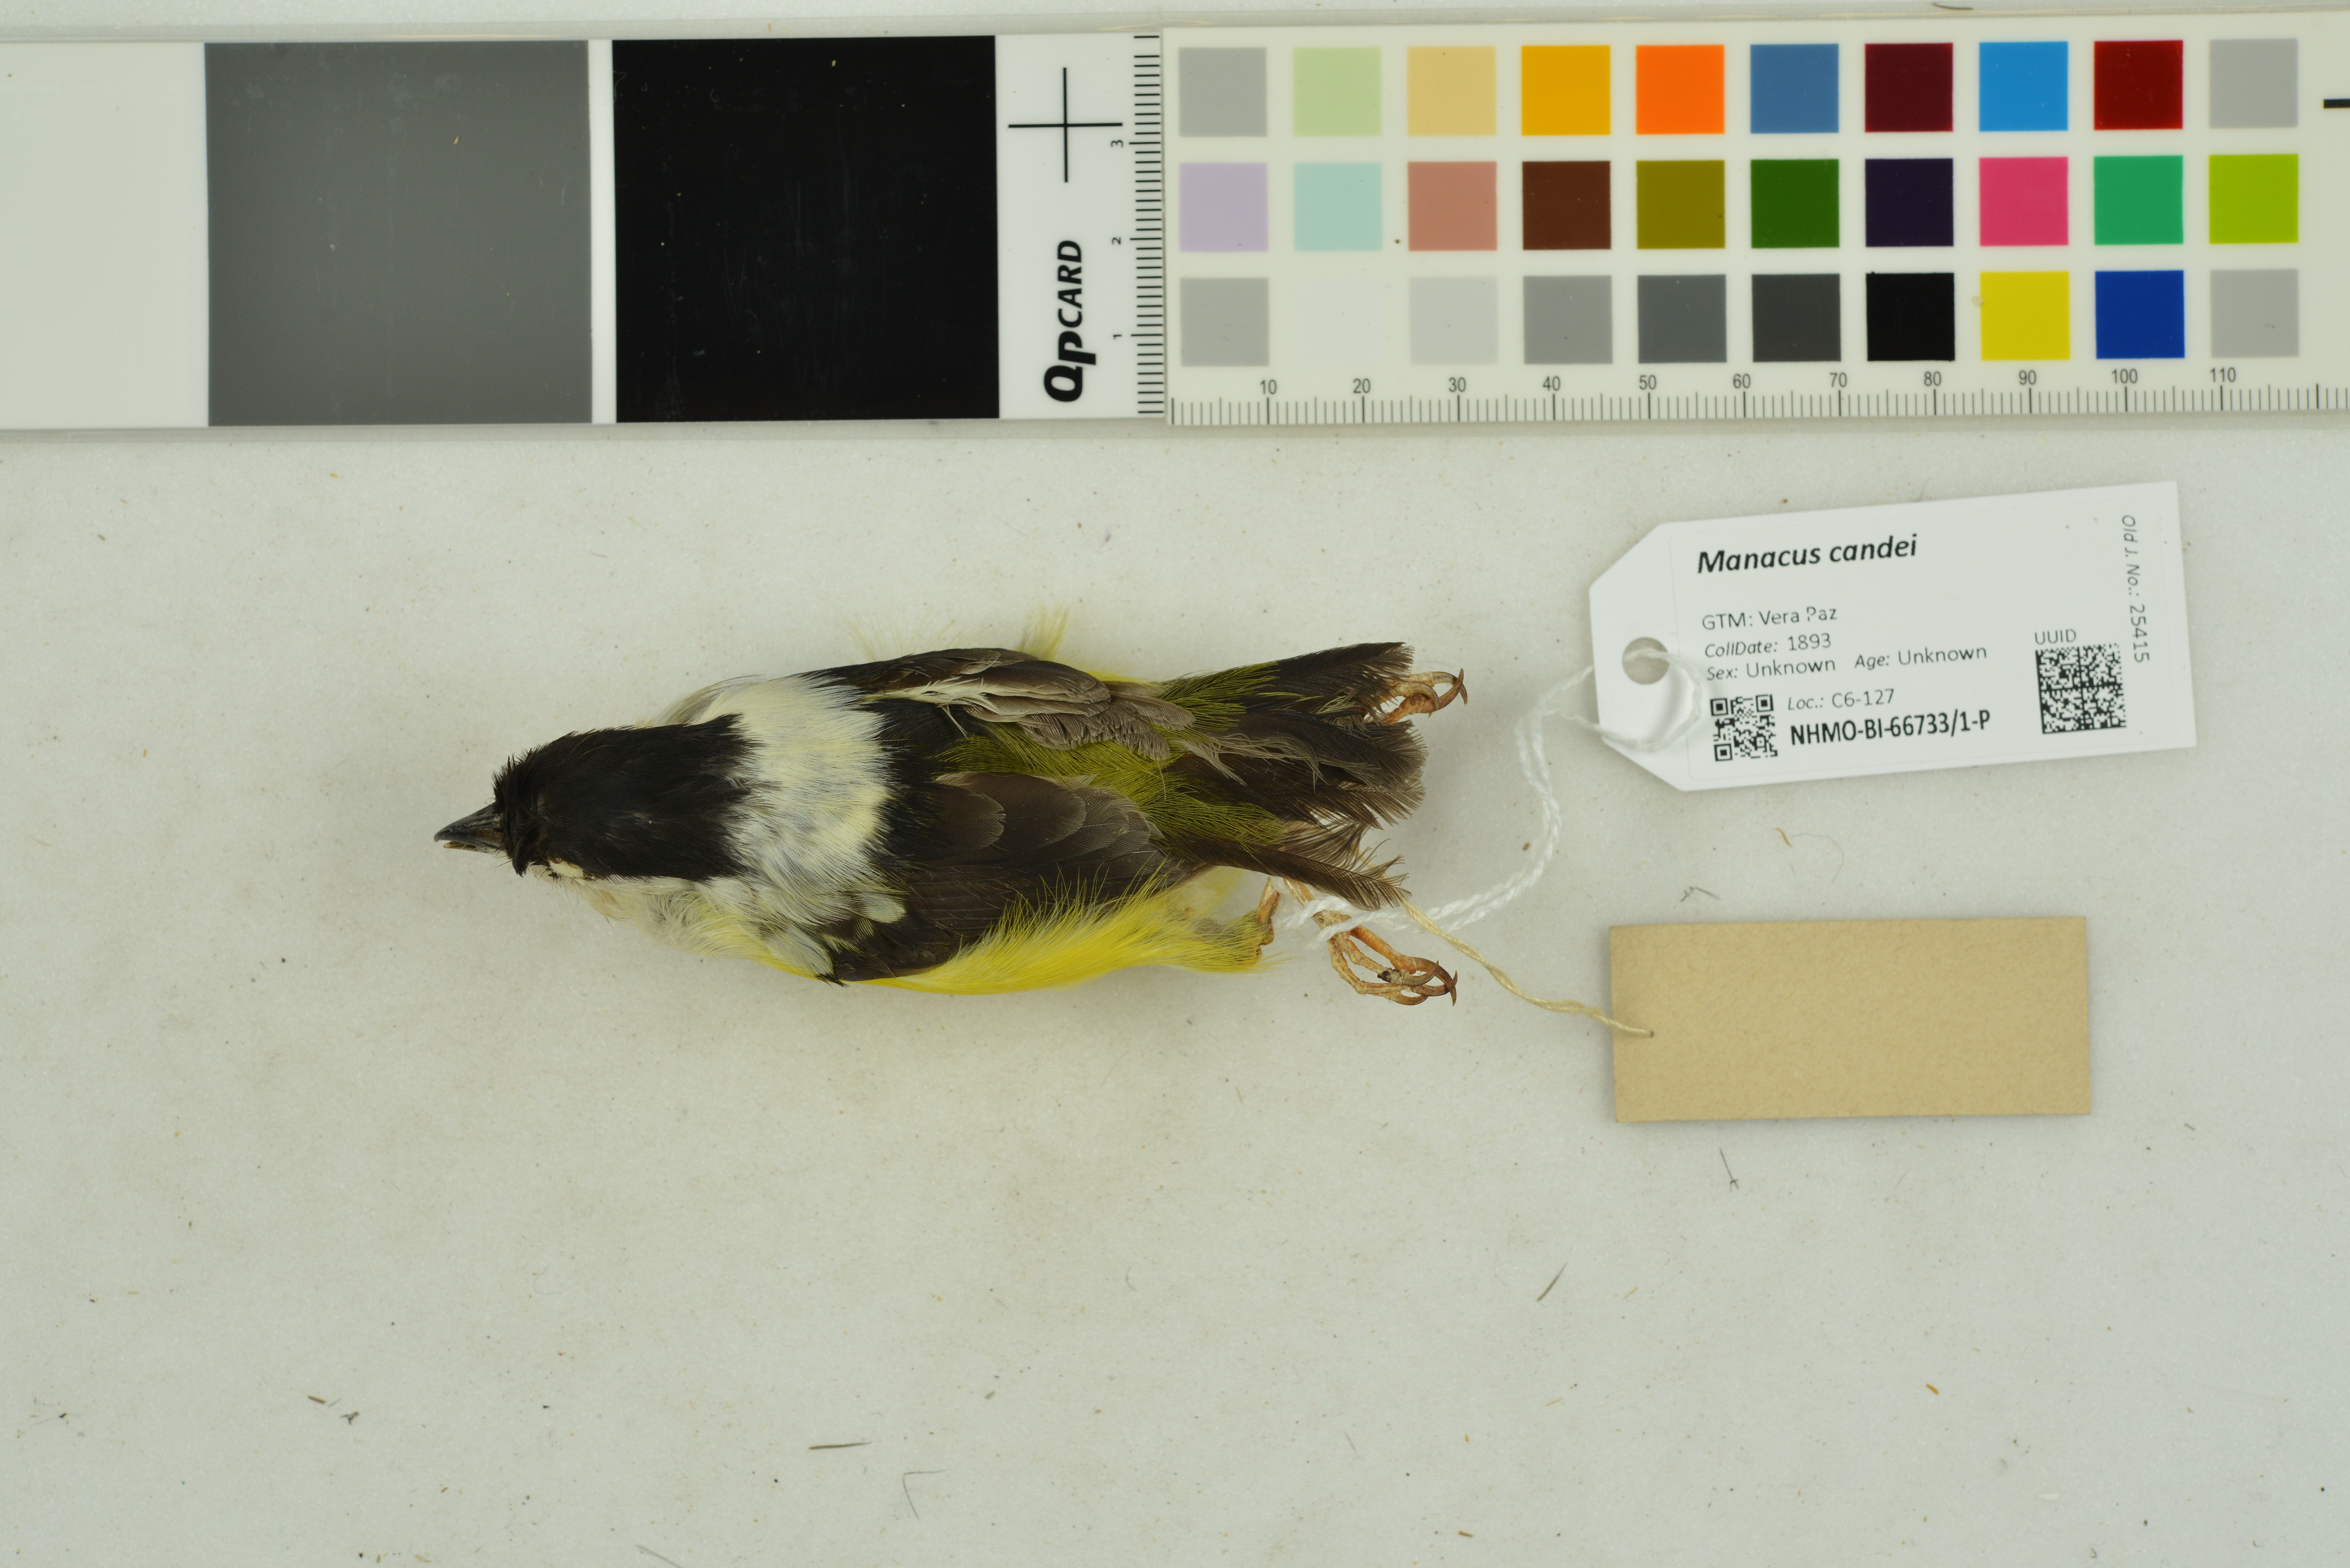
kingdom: Animalia
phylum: Chordata
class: Aves
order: Passeriformes
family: Pipridae
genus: Manacus
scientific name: Manacus candei
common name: White-collared manakin
